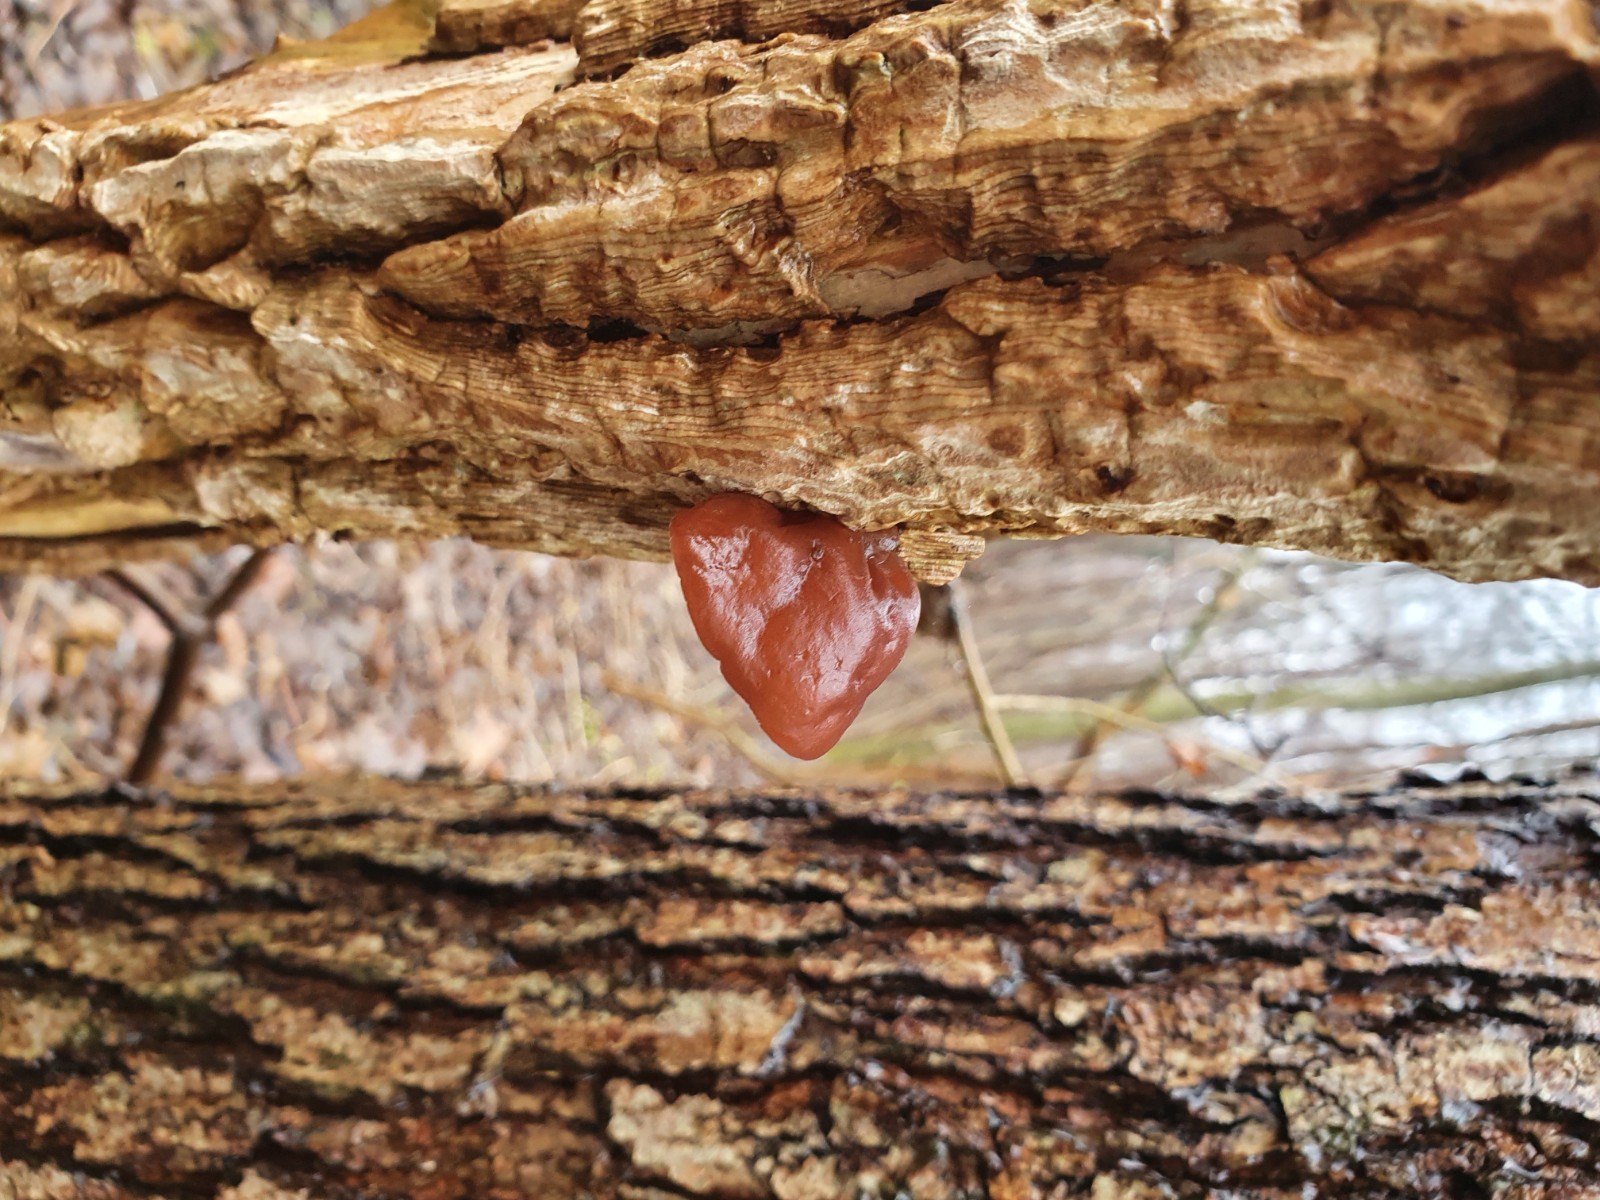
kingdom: Fungi
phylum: Basidiomycota
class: Agaricomycetes
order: Auriculariales
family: Auriculariaceae
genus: Auricularia
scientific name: Auricularia auricula-judae
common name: almindelig judasøre
